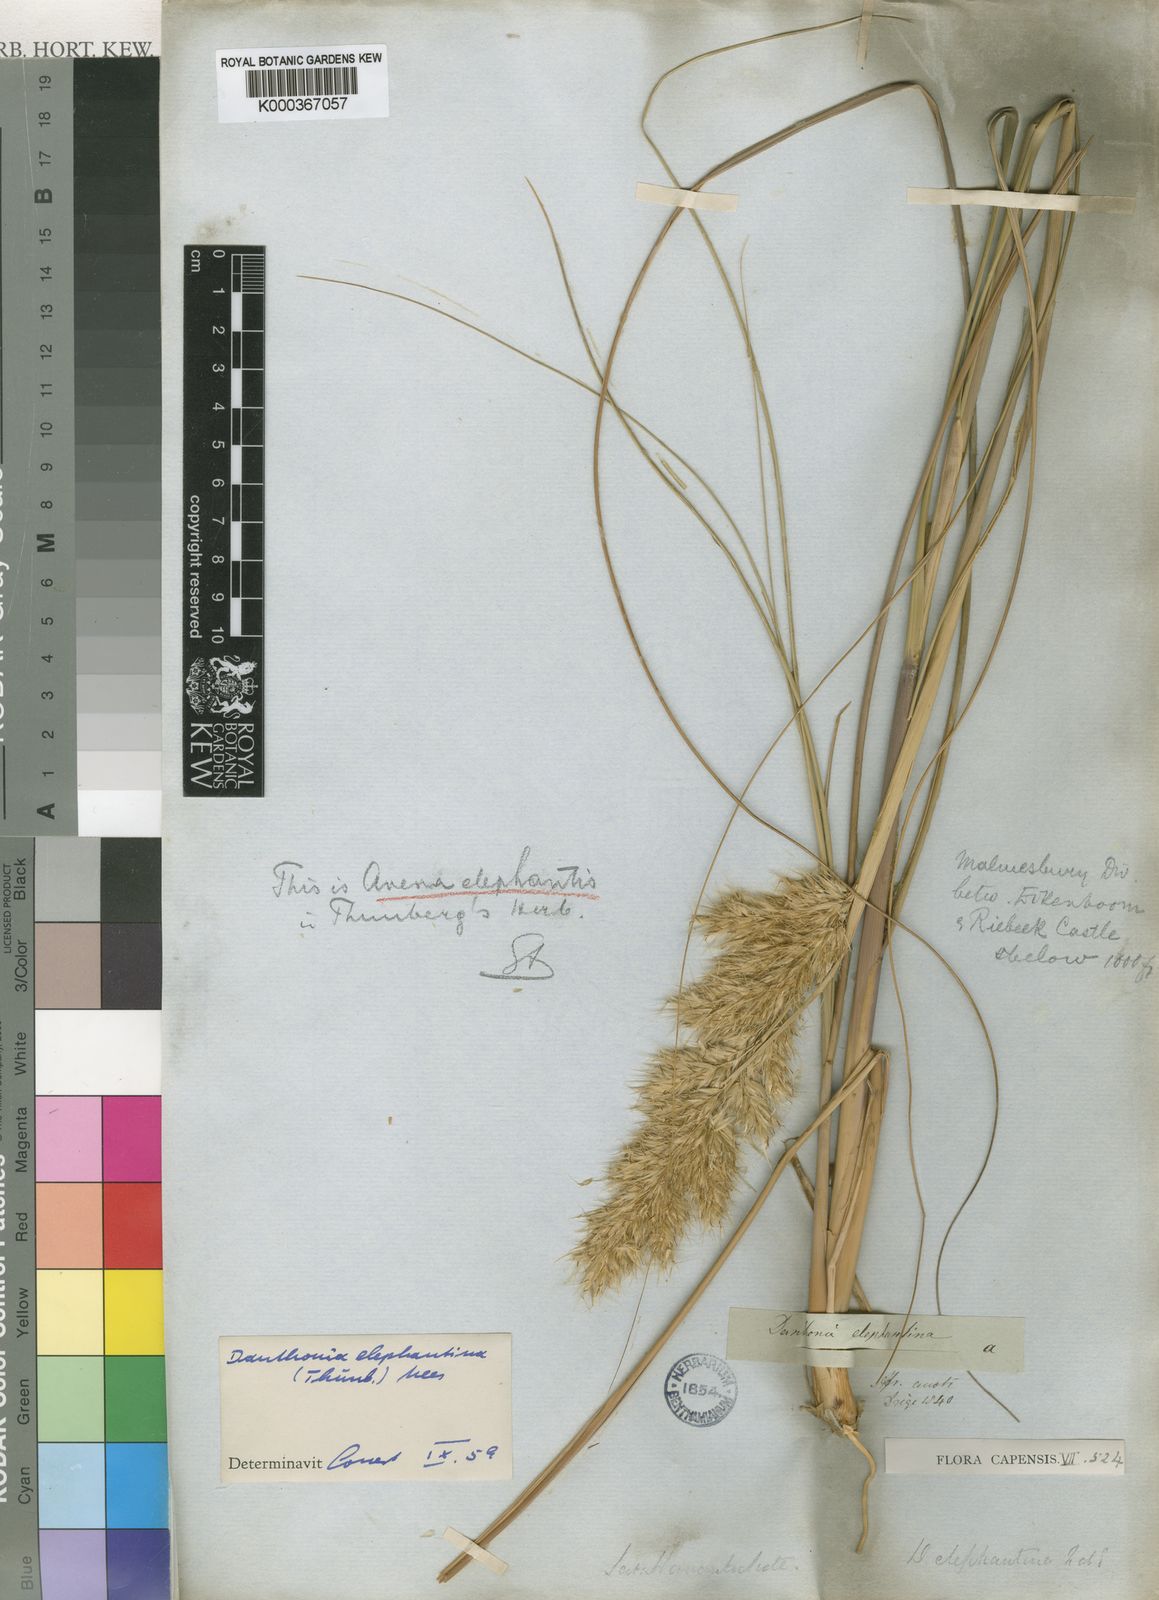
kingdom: Plantae
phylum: Tracheophyta
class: Liliopsida
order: Poales
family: Poaceae
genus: Rytidosperma
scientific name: Rytidosperma
